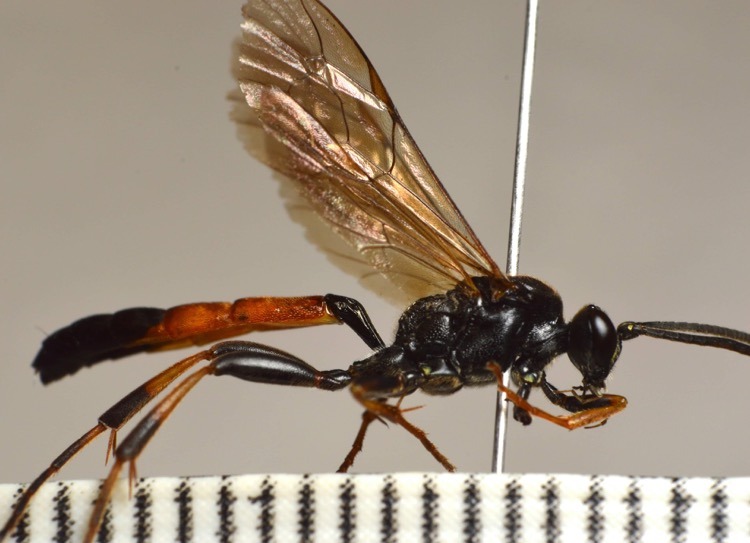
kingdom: Animalia
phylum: Arthropoda
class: Insecta
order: Hymenoptera
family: Ichneumonidae
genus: Ichneumon
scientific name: Ichneumon extensorius
